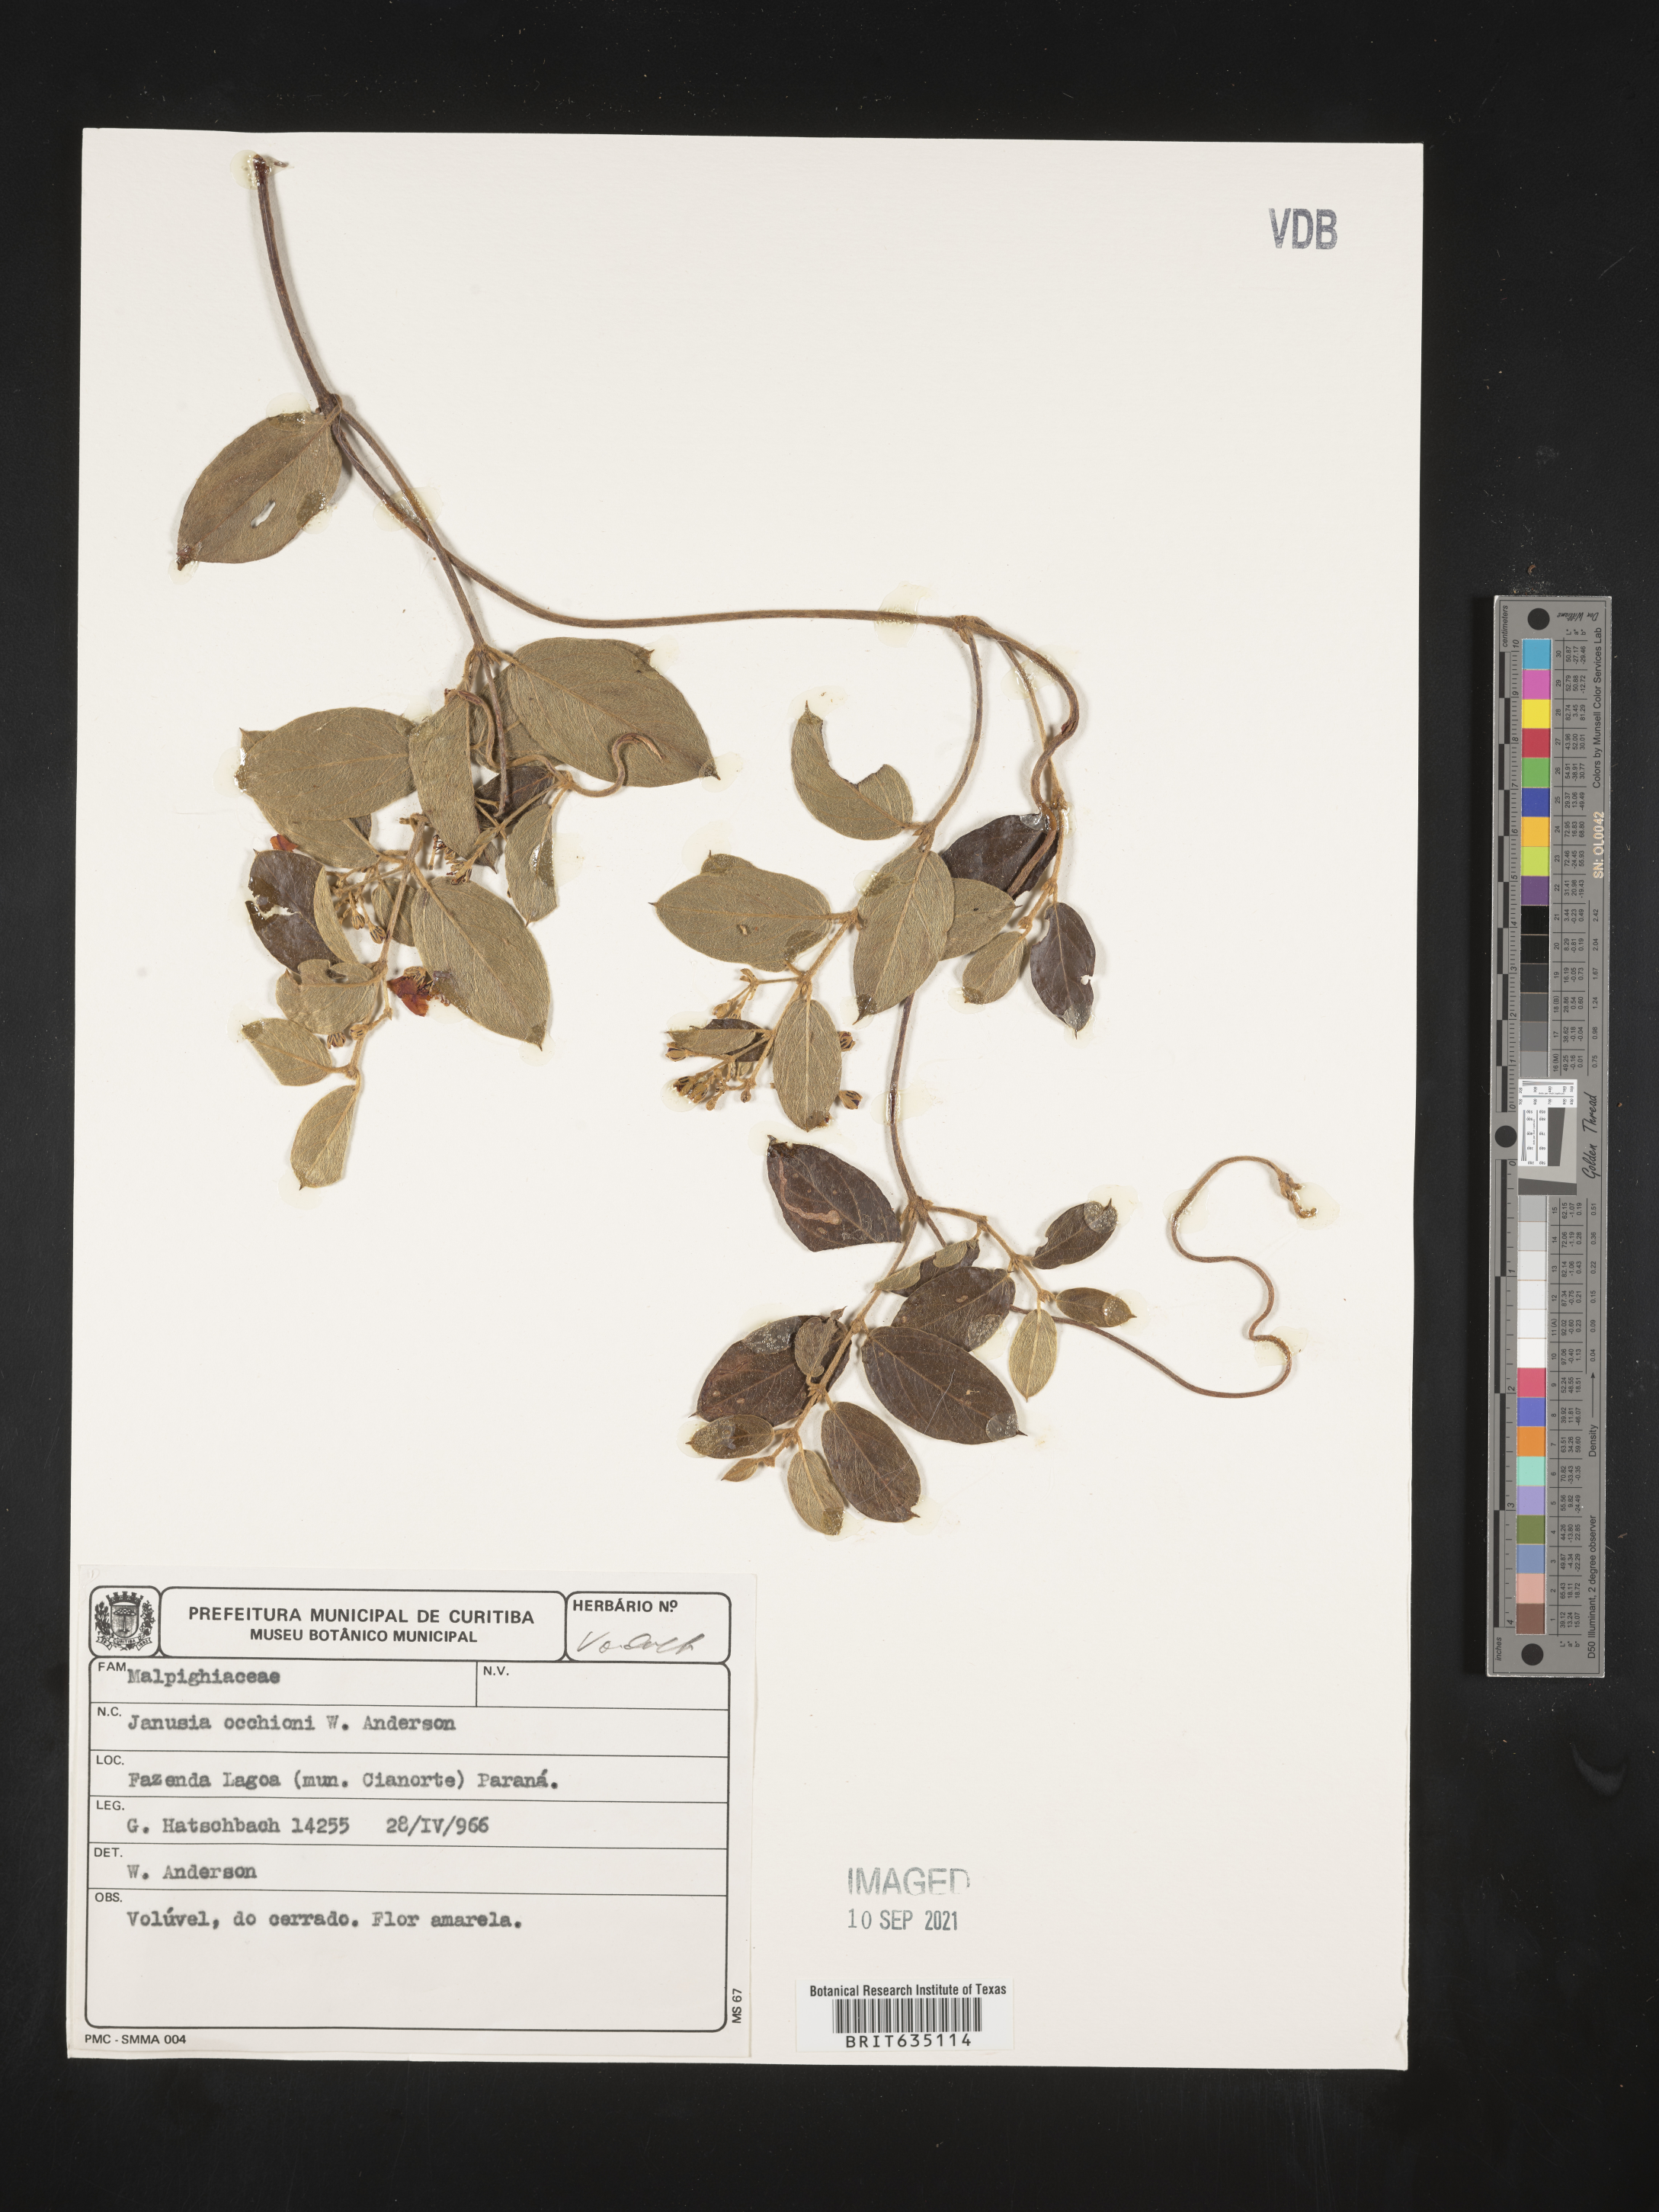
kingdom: Plantae
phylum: Tracheophyta
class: Magnoliopsida
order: Malpighiales
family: Malpighiaceae
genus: Janusia
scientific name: Janusia
